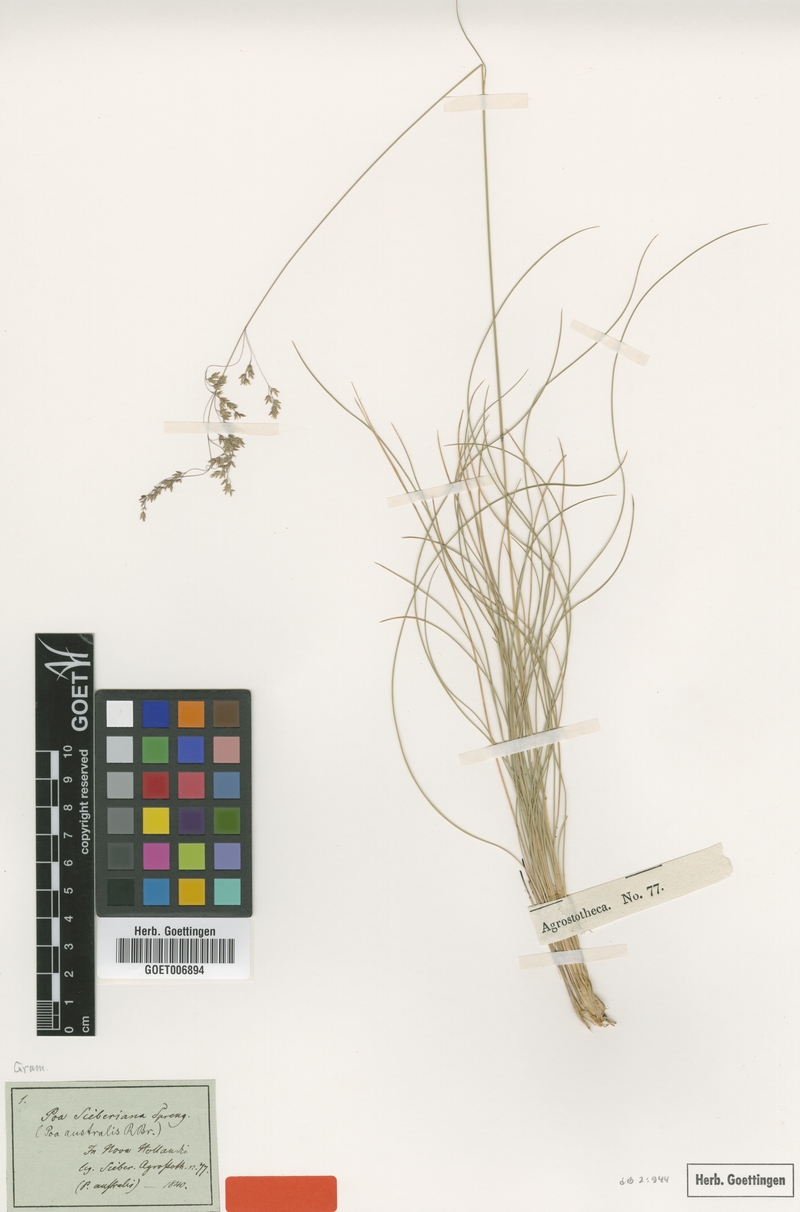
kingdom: Plantae
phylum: Tracheophyta
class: Liliopsida
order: Poales
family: Poaceae
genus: Poa
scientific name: Poa sieberiana
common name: Tussock poa
